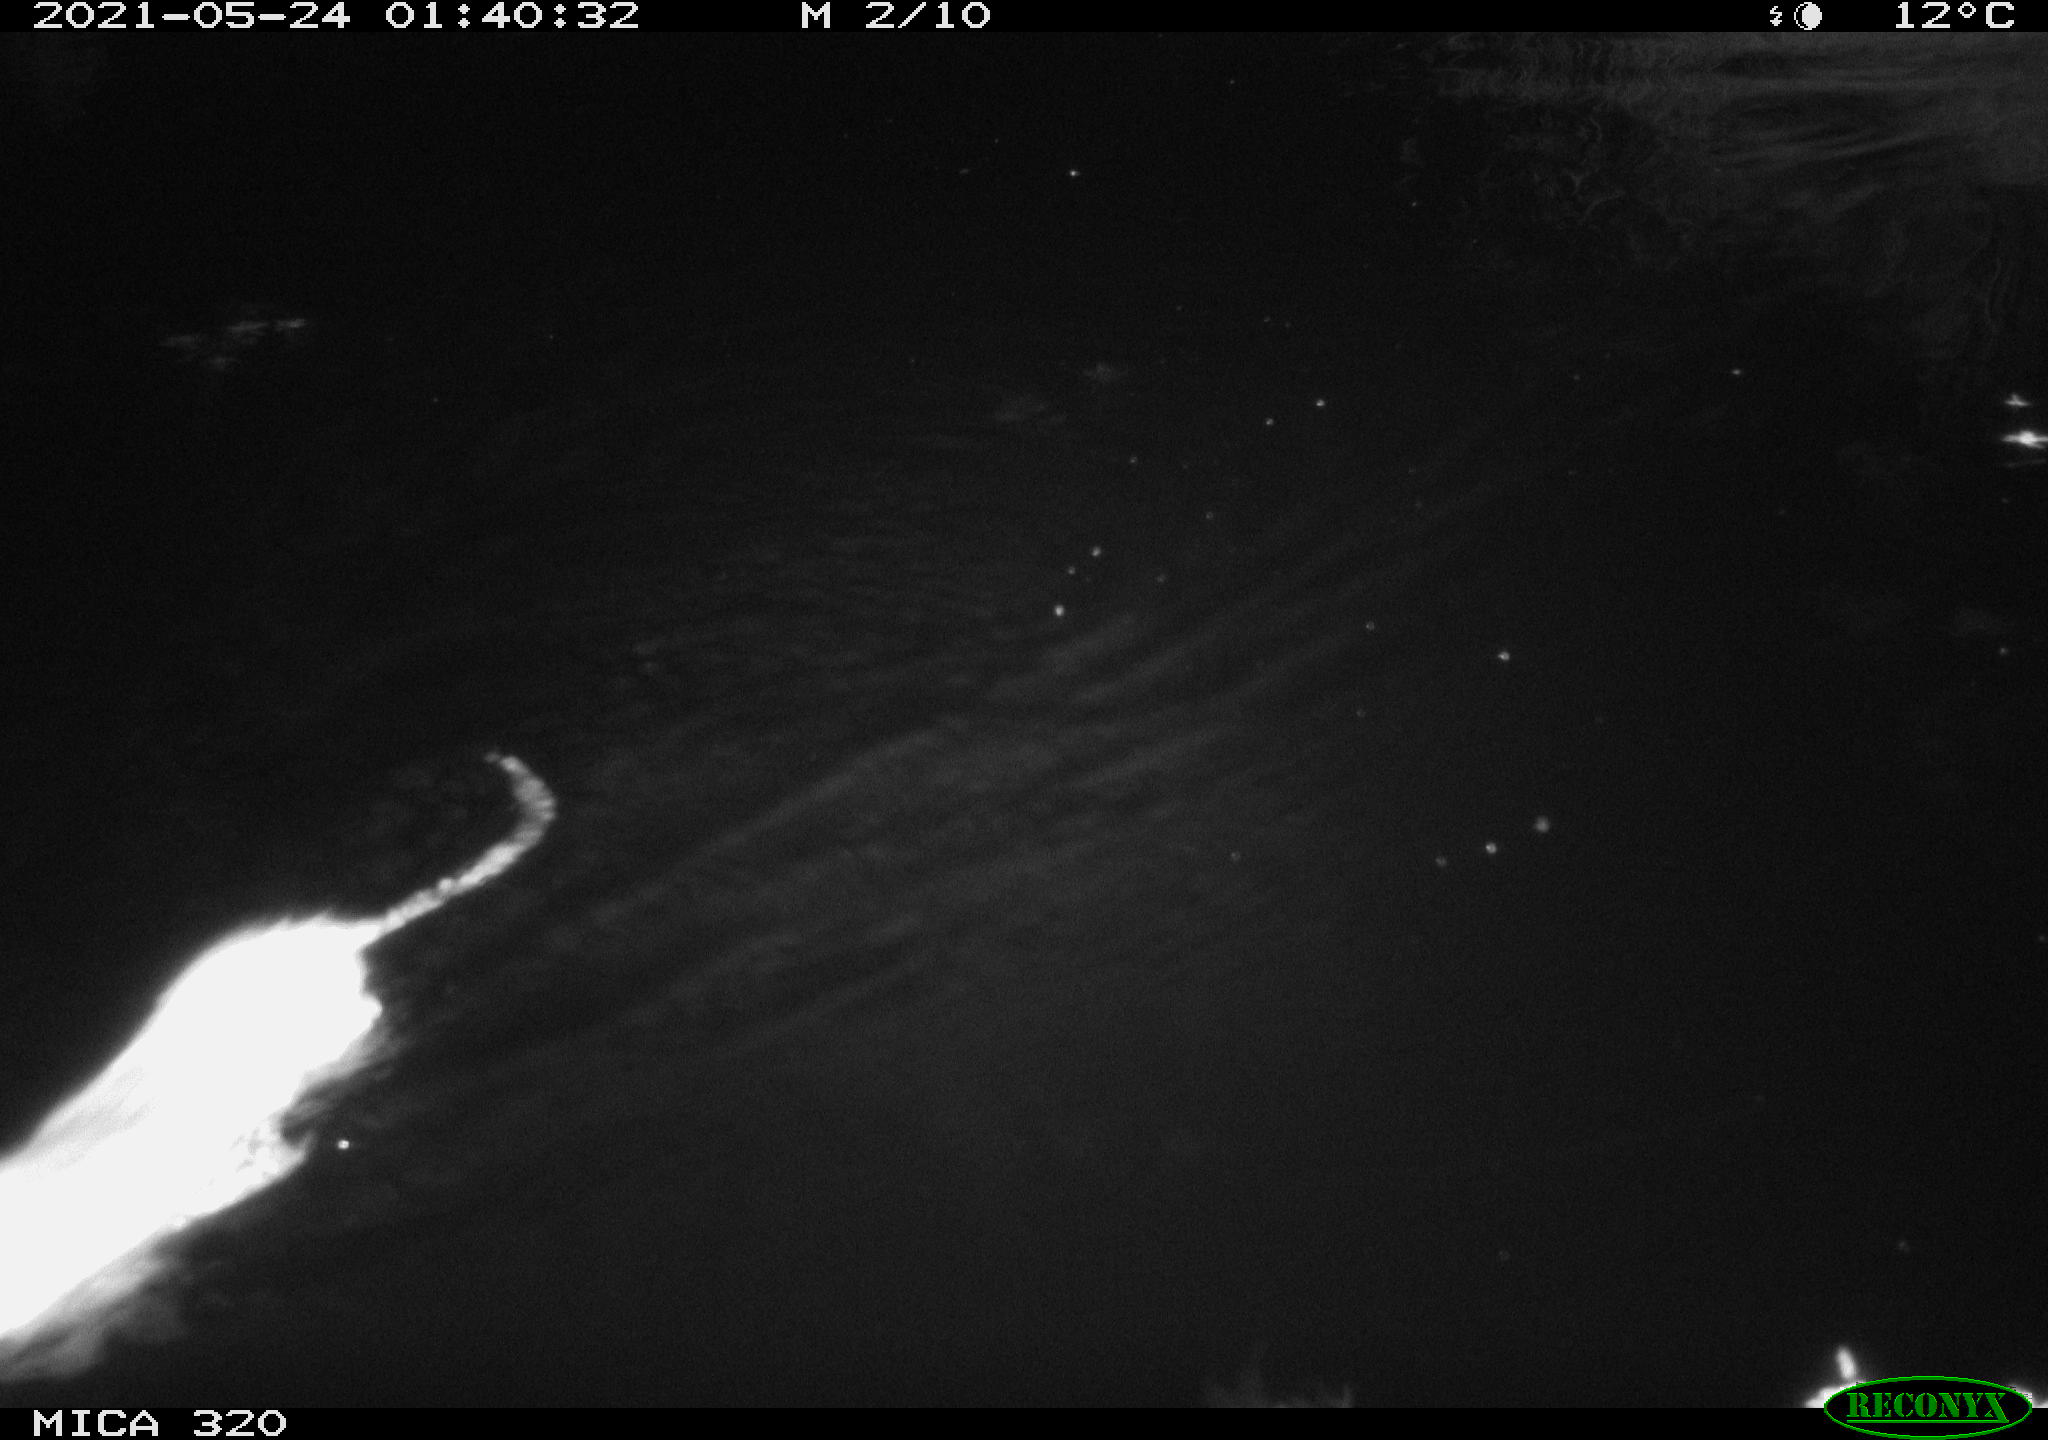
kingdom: Animalia
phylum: Chordata
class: Mammalia
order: Rodentia
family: Muridae
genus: Rattus
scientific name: Rattus norvegicus
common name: Brown rat
